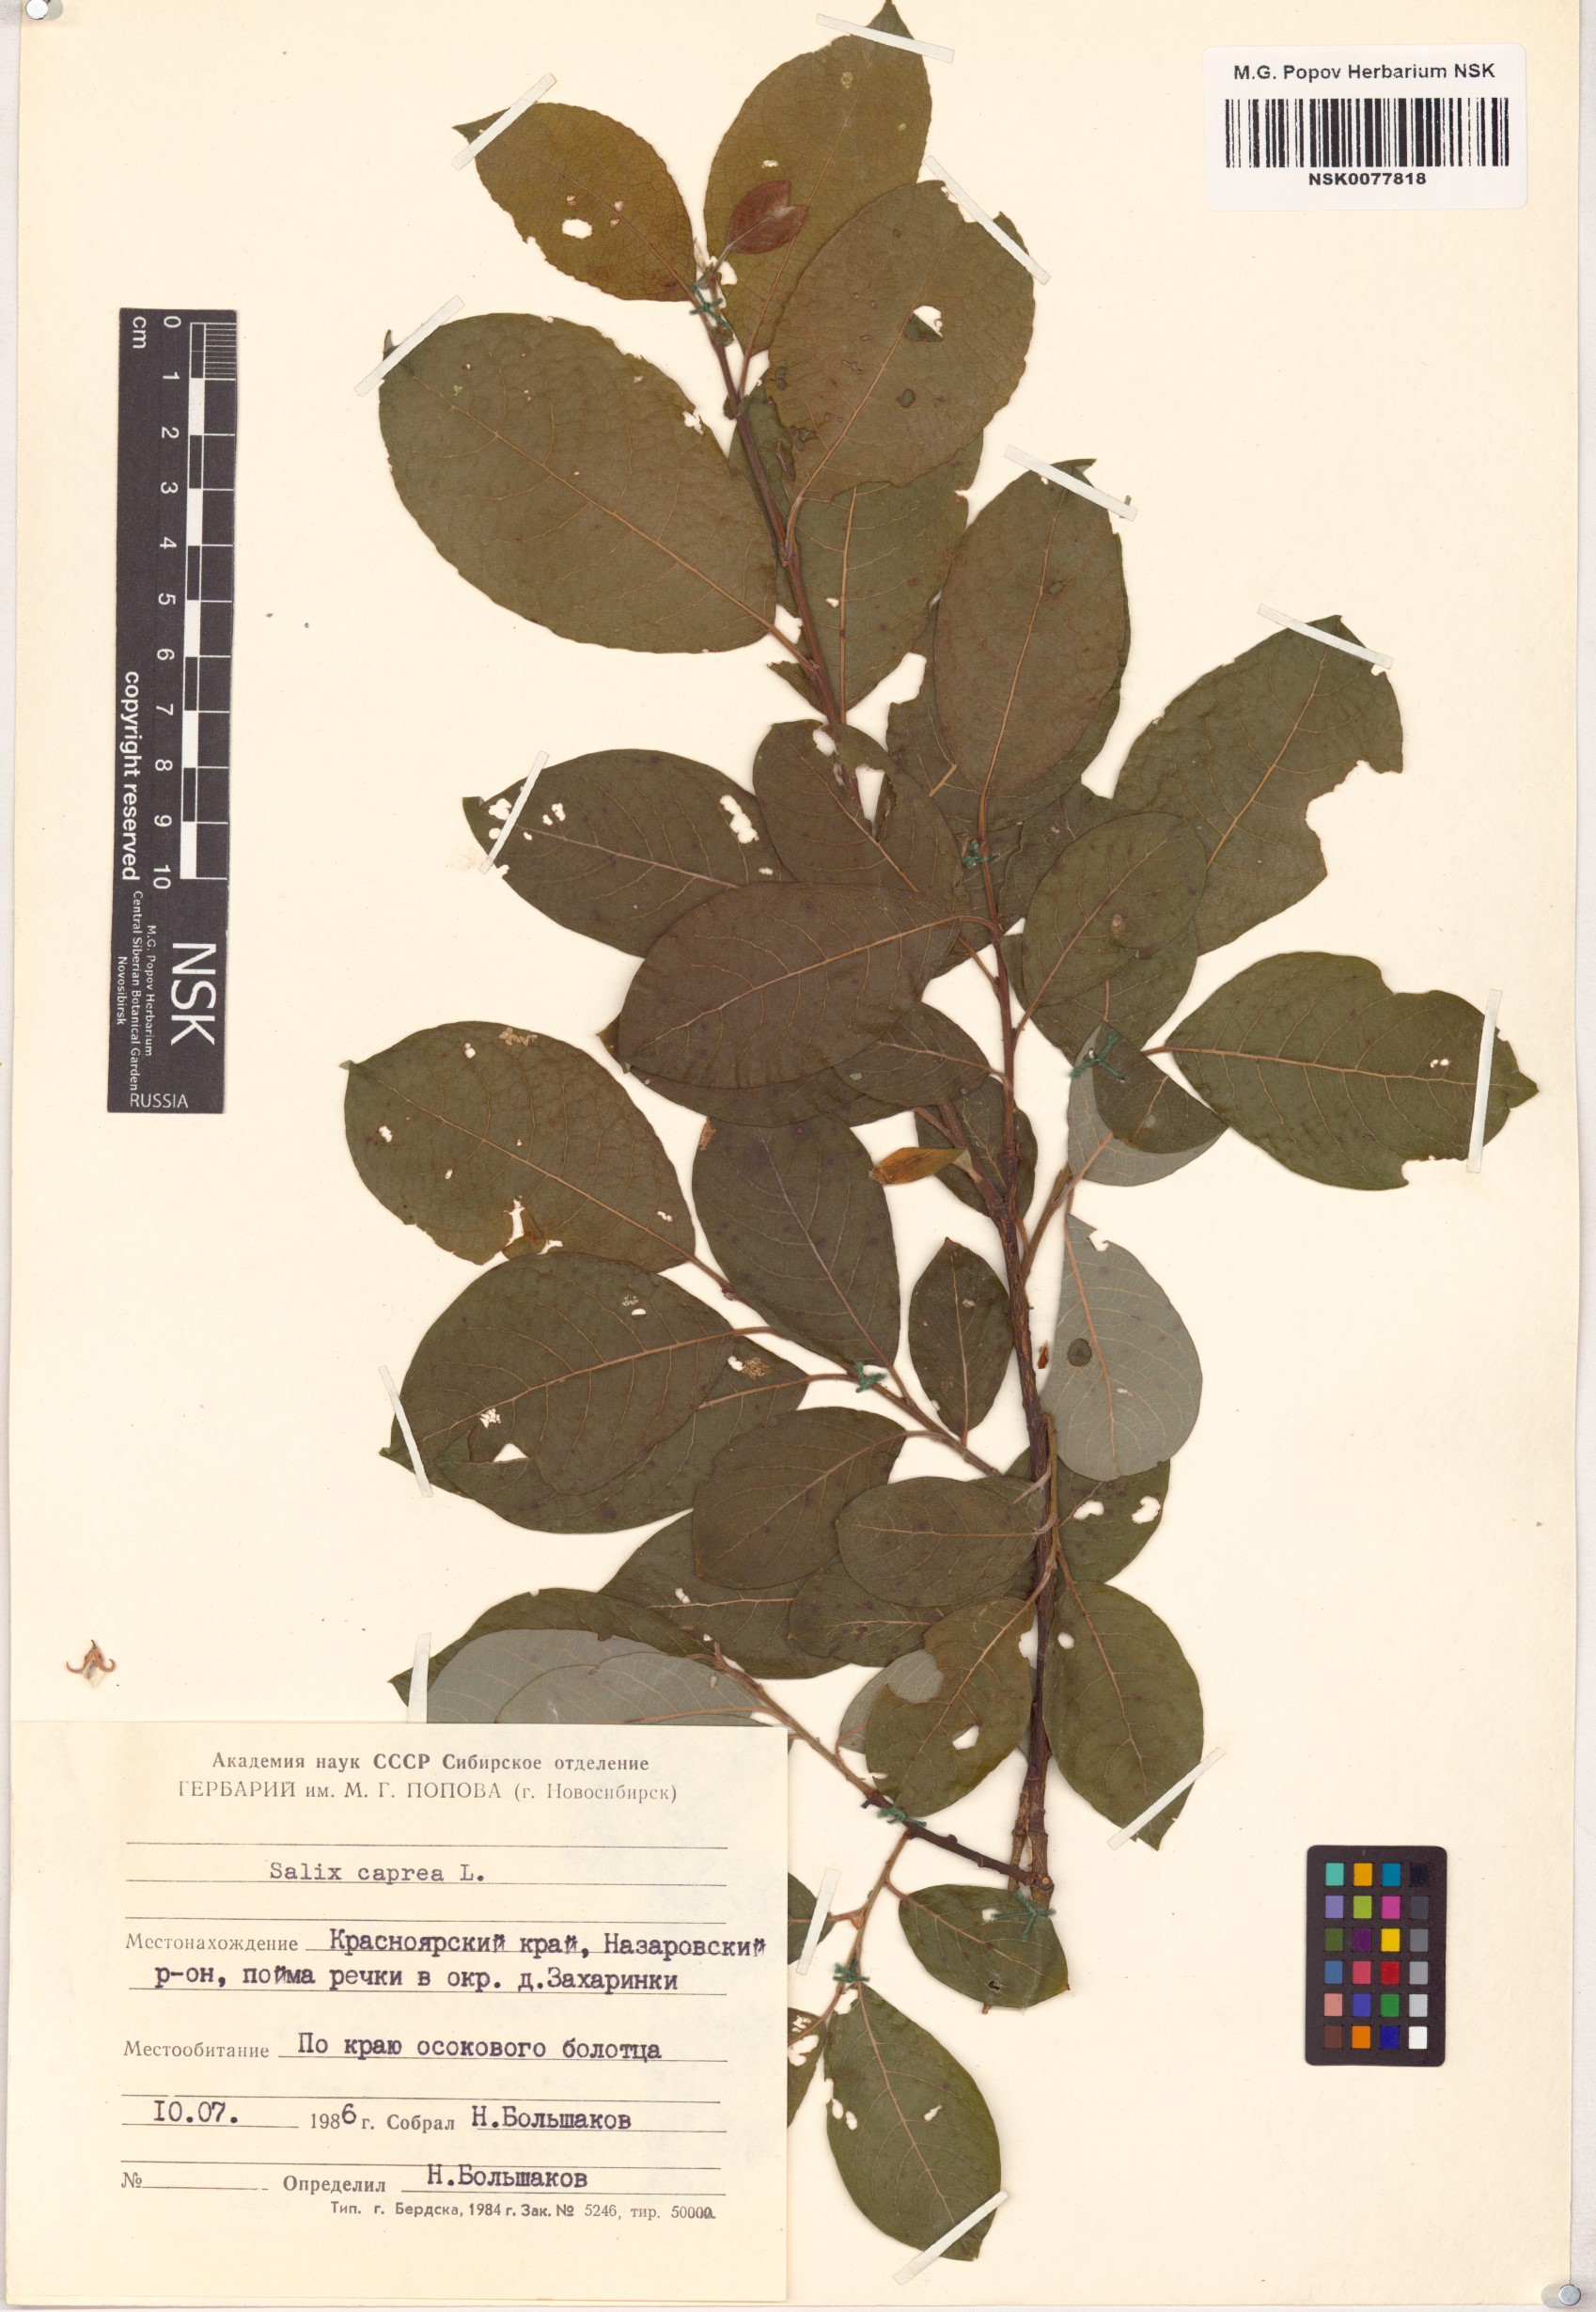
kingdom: Plantae
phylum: Tracheophyta
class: Magnoliopsida
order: Malpighiales
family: Salicaceae
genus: Salix
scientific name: Salix caprea
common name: Goat willow
